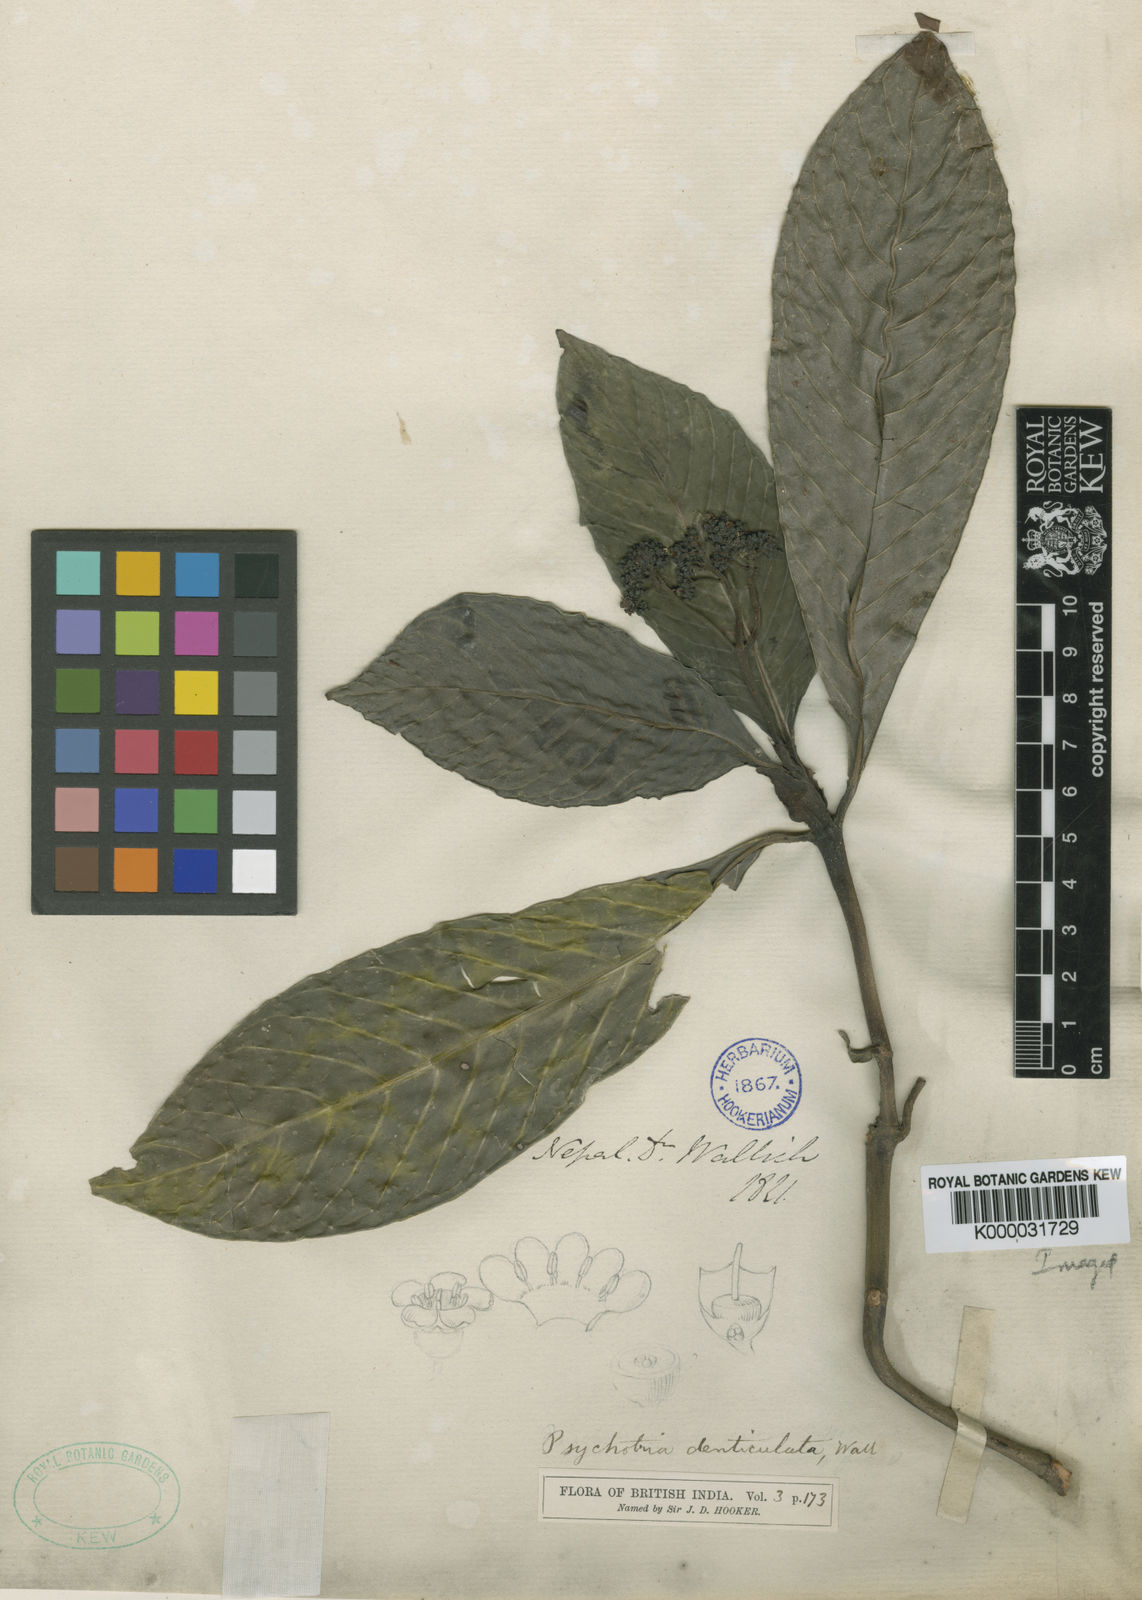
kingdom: Plantae
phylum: Tracheophyta
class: Magnoliopsida
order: Gentianales
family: Rubiaceae
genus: Psychotria
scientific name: Psychotria denticulata
